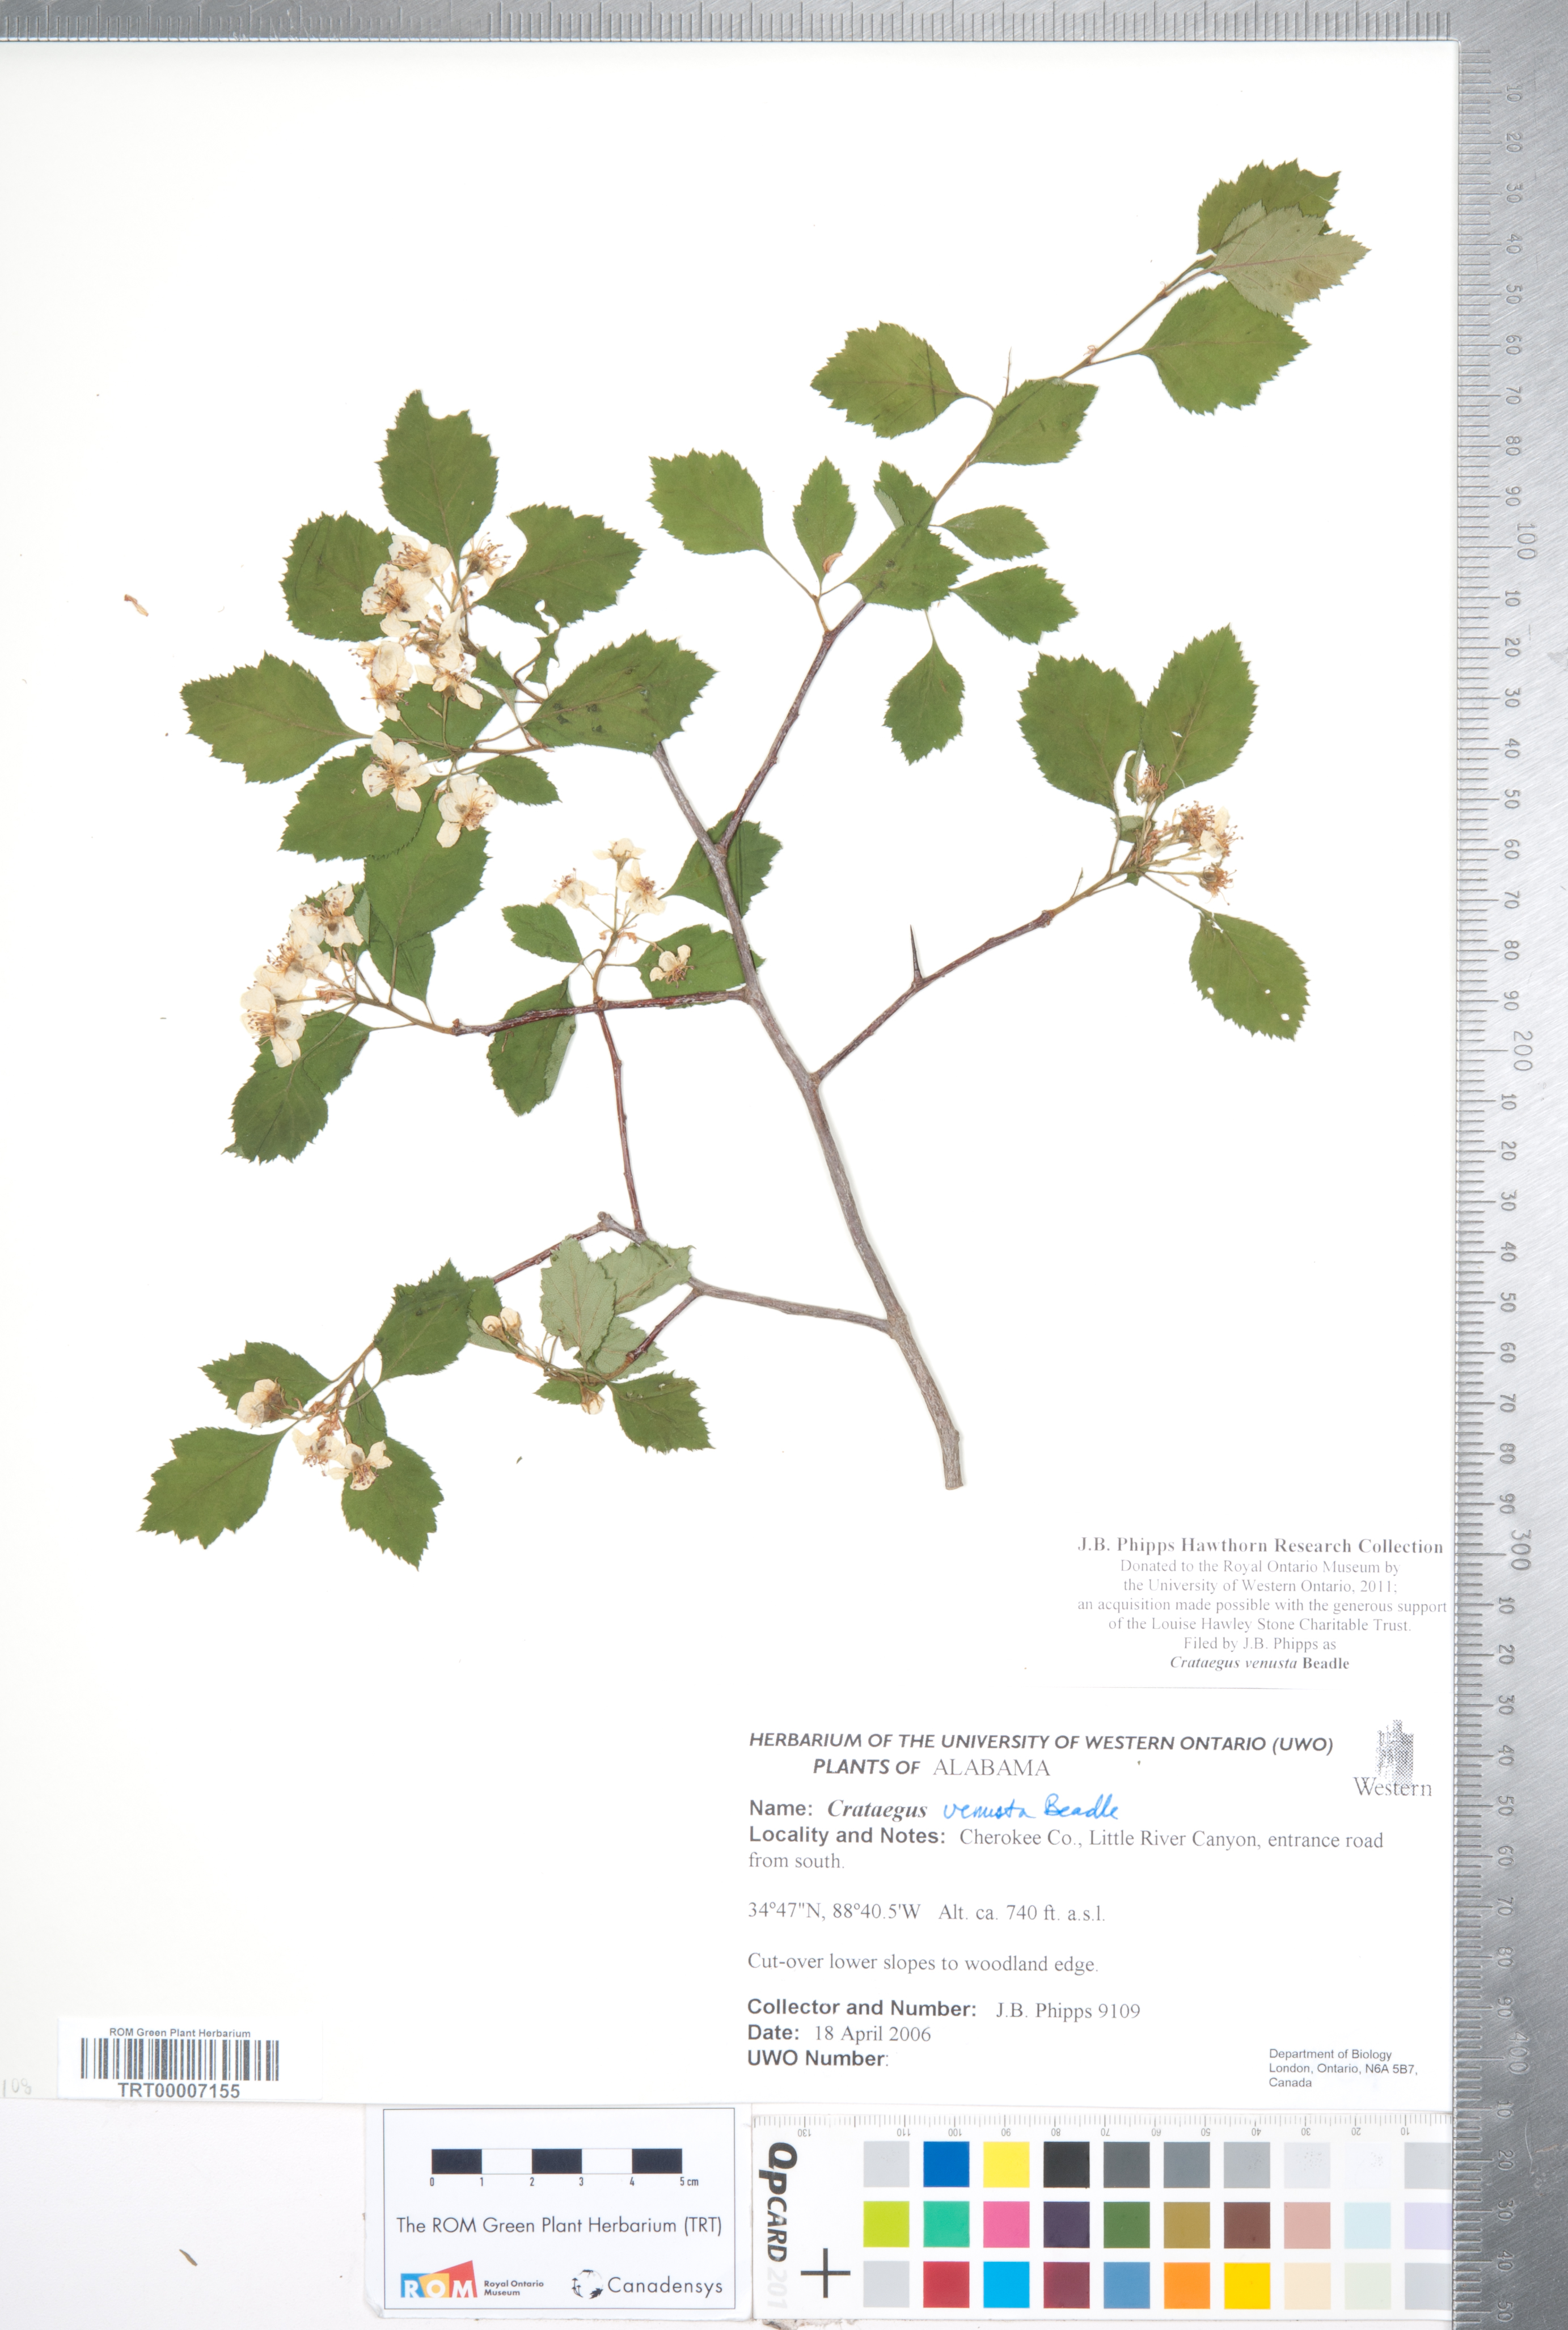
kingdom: Plantae
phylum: Tracheophyta
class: Magnoliopsida
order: Rosales
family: Rosaceae
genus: Crataegus
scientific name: Crataegus venusta
